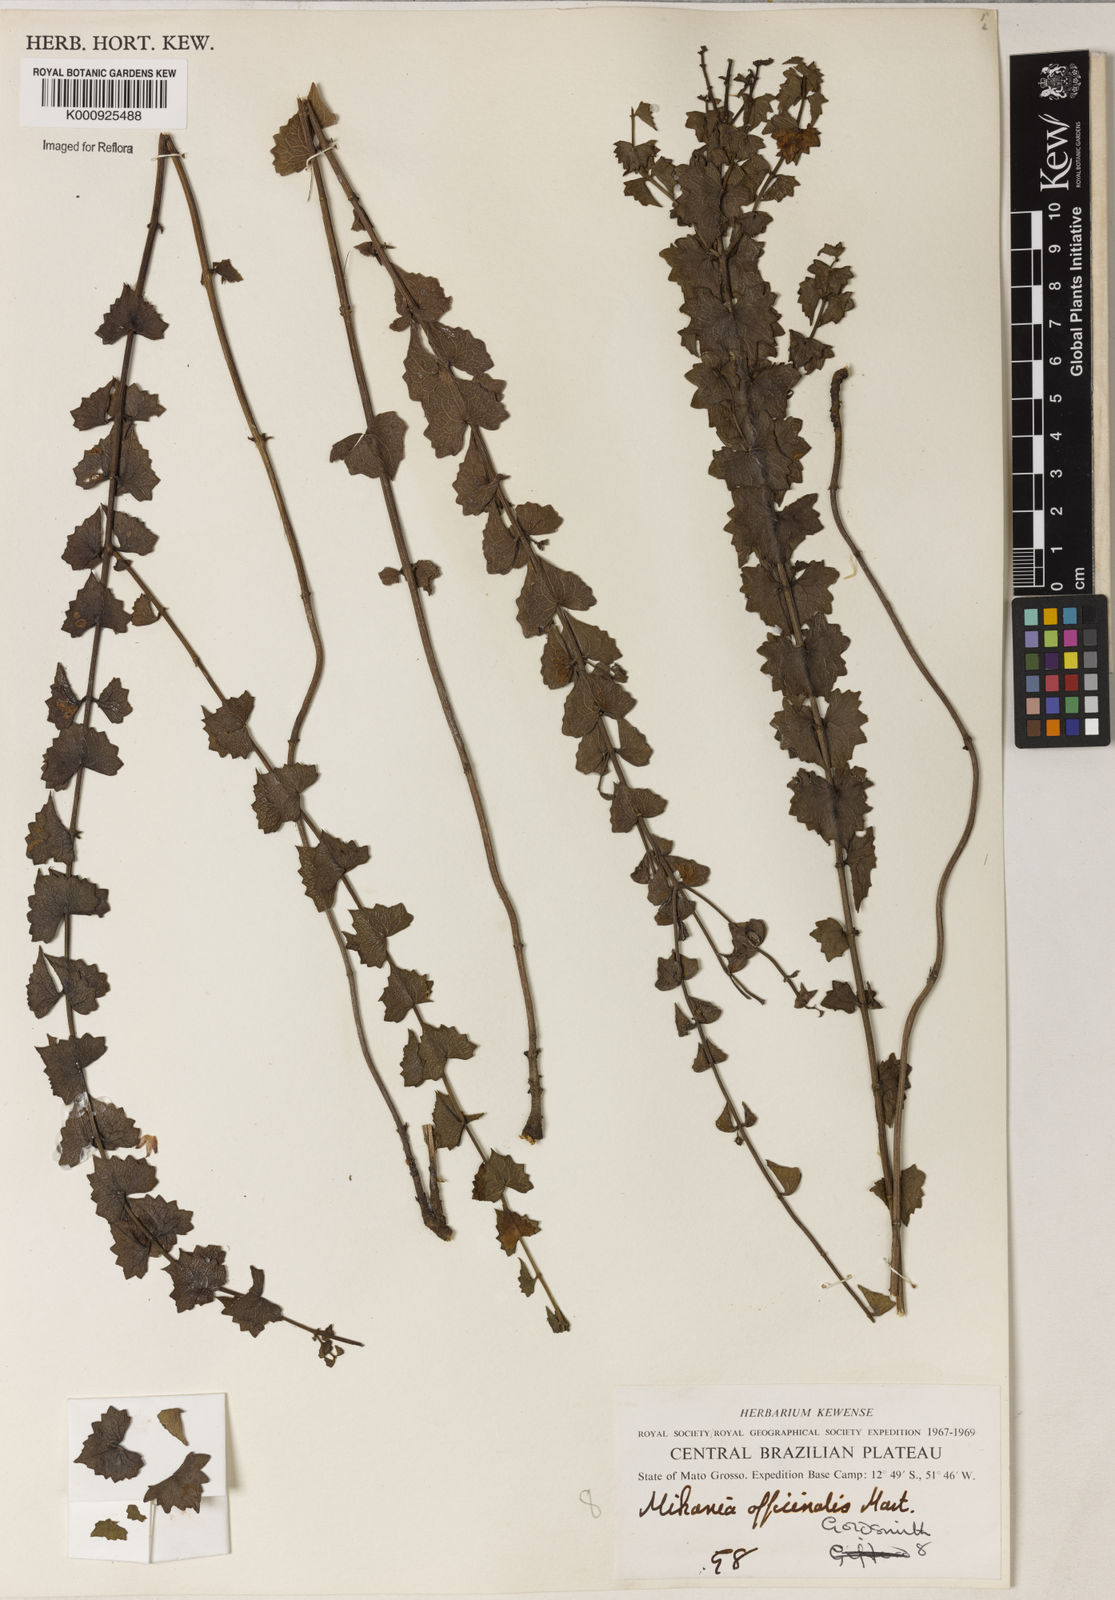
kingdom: Plantae
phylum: Tracheophyta
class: Magnoliopsida
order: Asterales
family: Asteraceae
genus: Mikania
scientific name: Mikania officinalis
